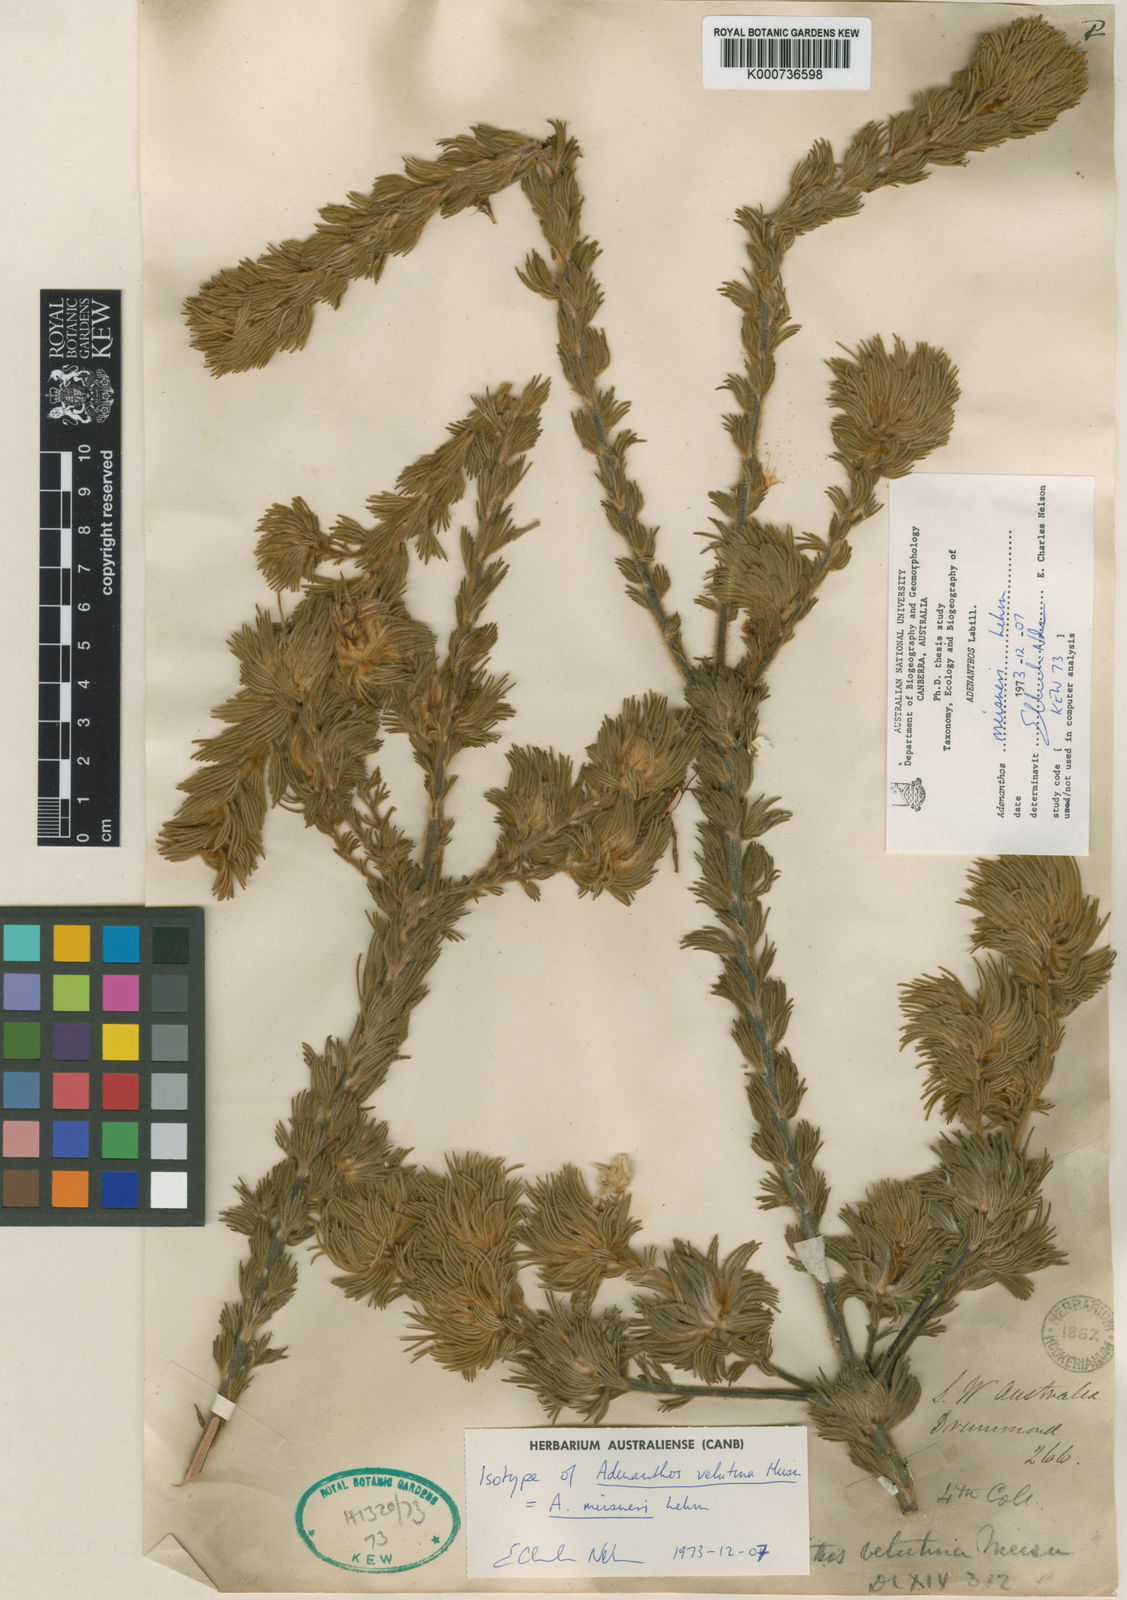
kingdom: Plantae
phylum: Tracheophyta
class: Magnoliopsida
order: Proteales
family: Proteaceae
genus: Adenanthos
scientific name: Adenanthos velutinus
